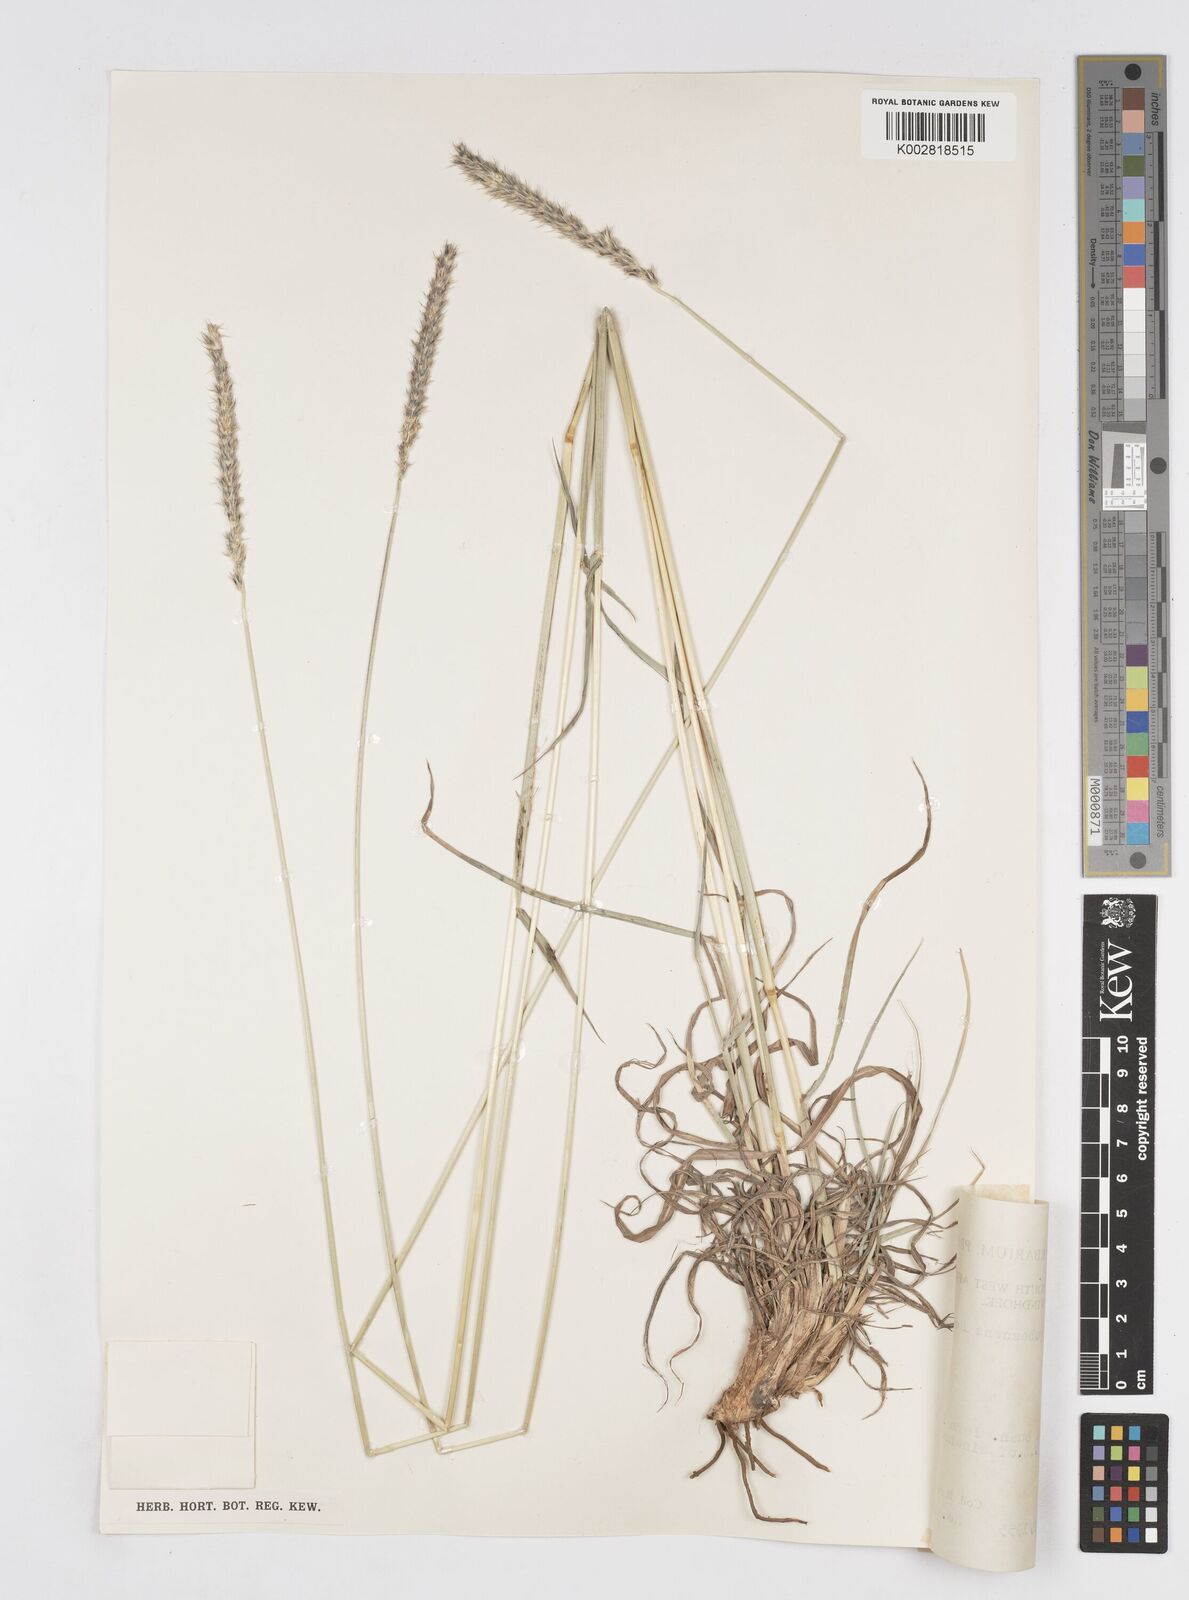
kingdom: Plantae
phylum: Tracheophyta
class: Liliopsida
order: Poales
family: Poaceae
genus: Anthephora
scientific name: Anthephora pubescens
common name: Wool grass
